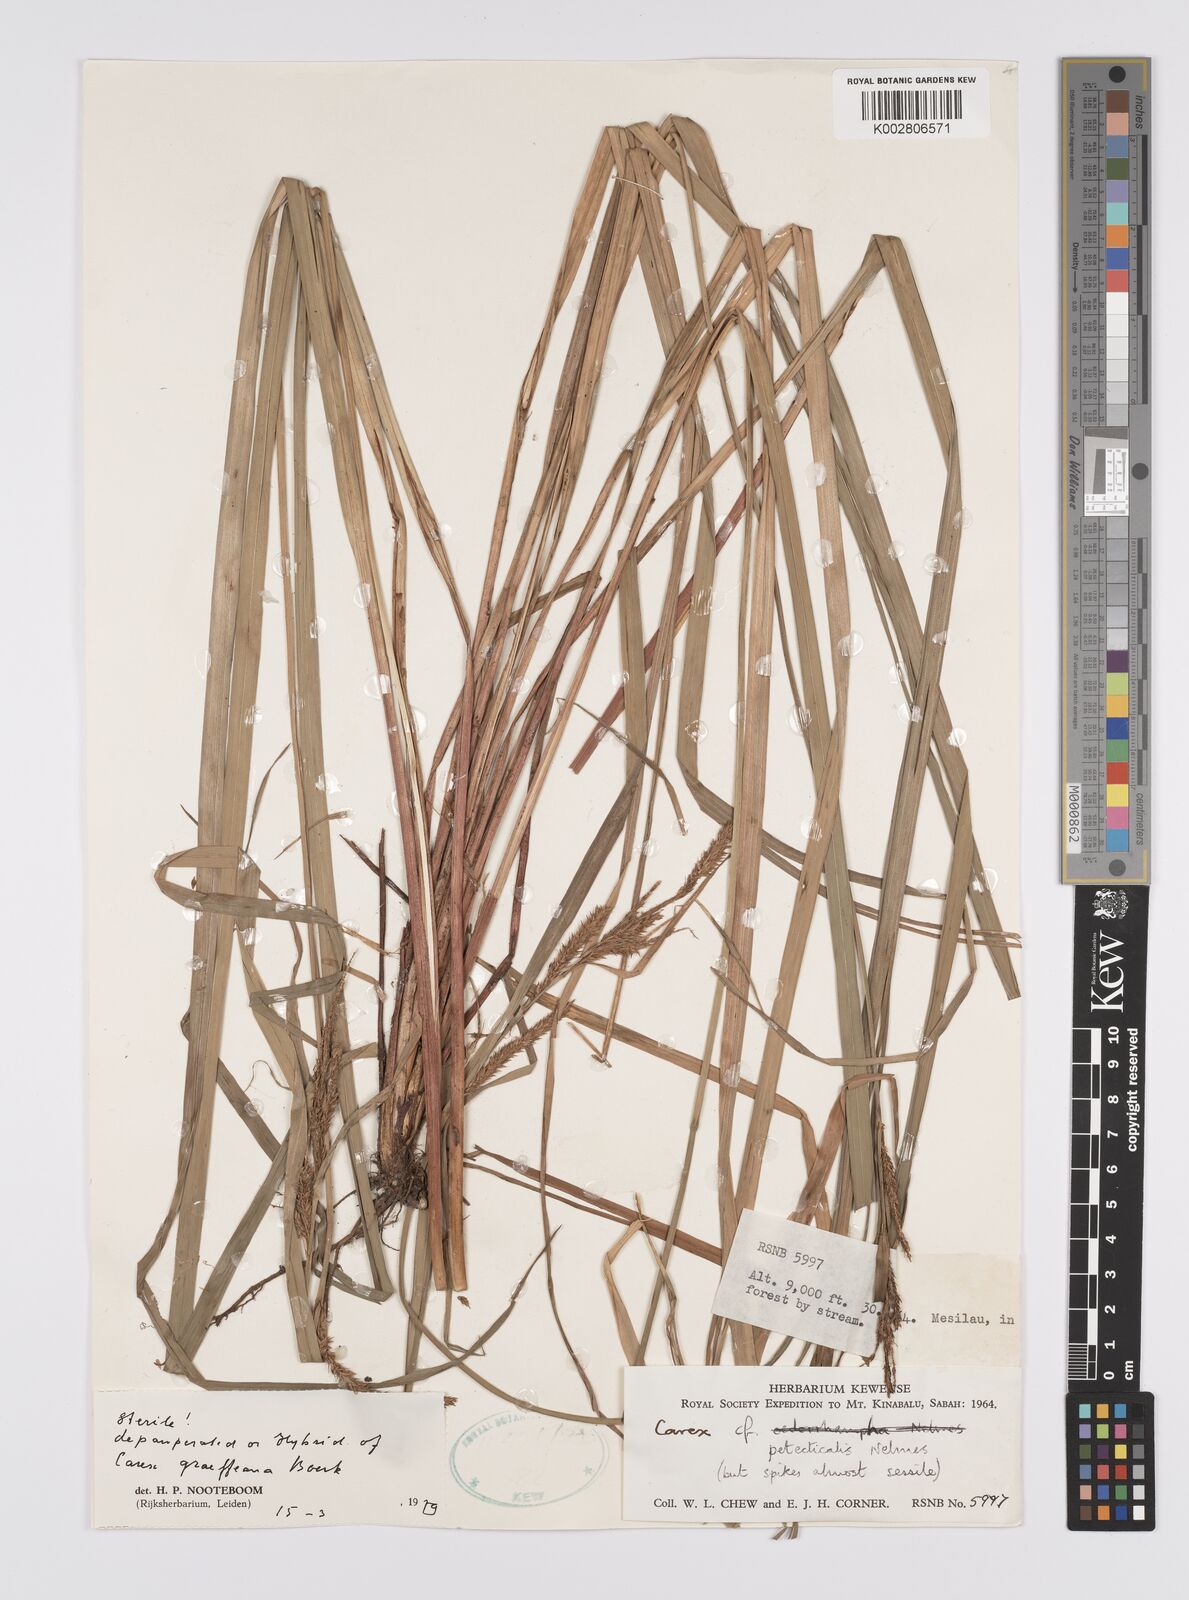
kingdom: Plantae
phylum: Tracheophyta
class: Liliopsida
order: Poales
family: Cyperaceae
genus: Carex
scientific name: Carex
